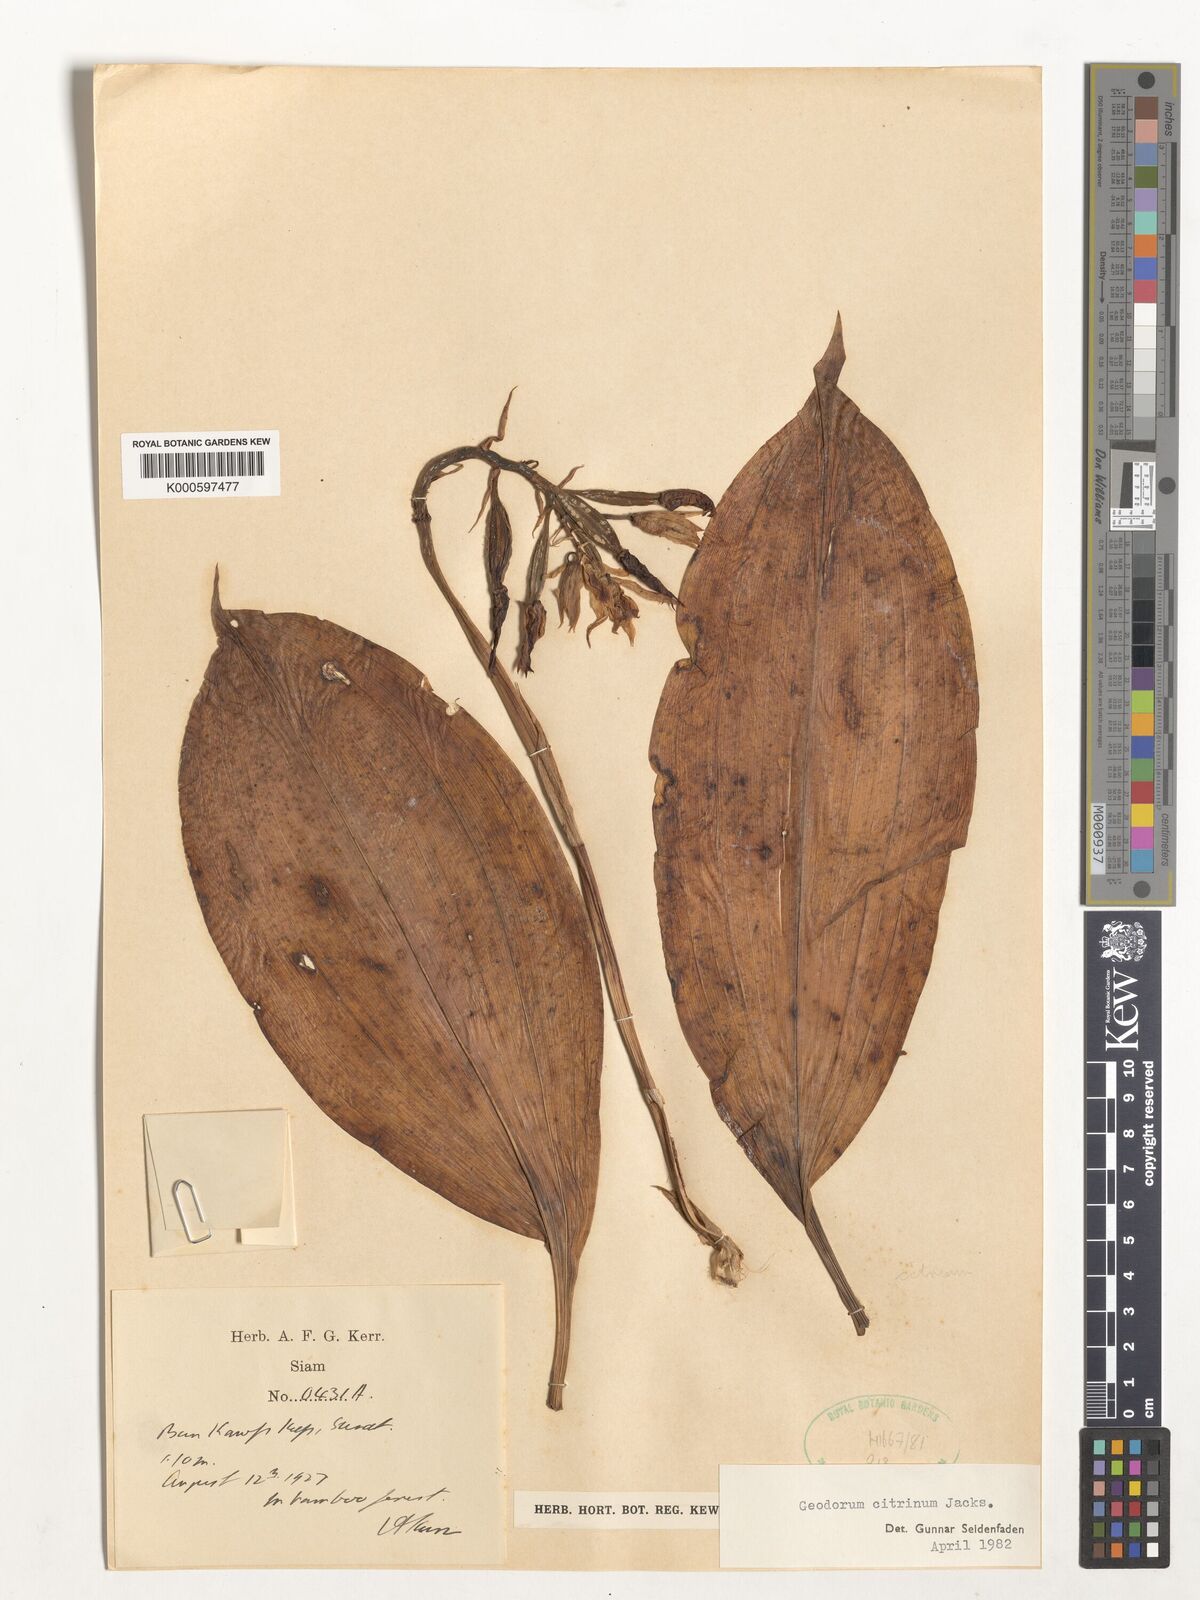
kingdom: Plantae
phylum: Tracheophyta
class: Liliopsida
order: Asparagales
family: Orchidaceae
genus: Geodorum
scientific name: Geodorum
